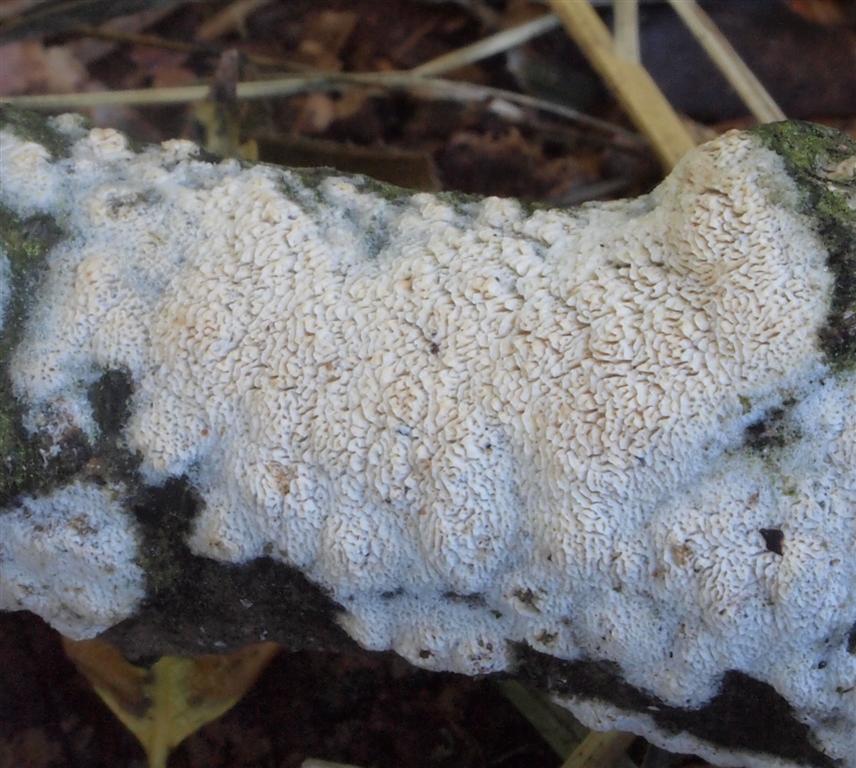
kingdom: Fungi
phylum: Basidiomycota
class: Agaricomycetes
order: Hymenochaetales
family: Schizoporaceae
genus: Xylodon
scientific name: Xylodon subtropicus
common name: labyrint-tandsvamp
